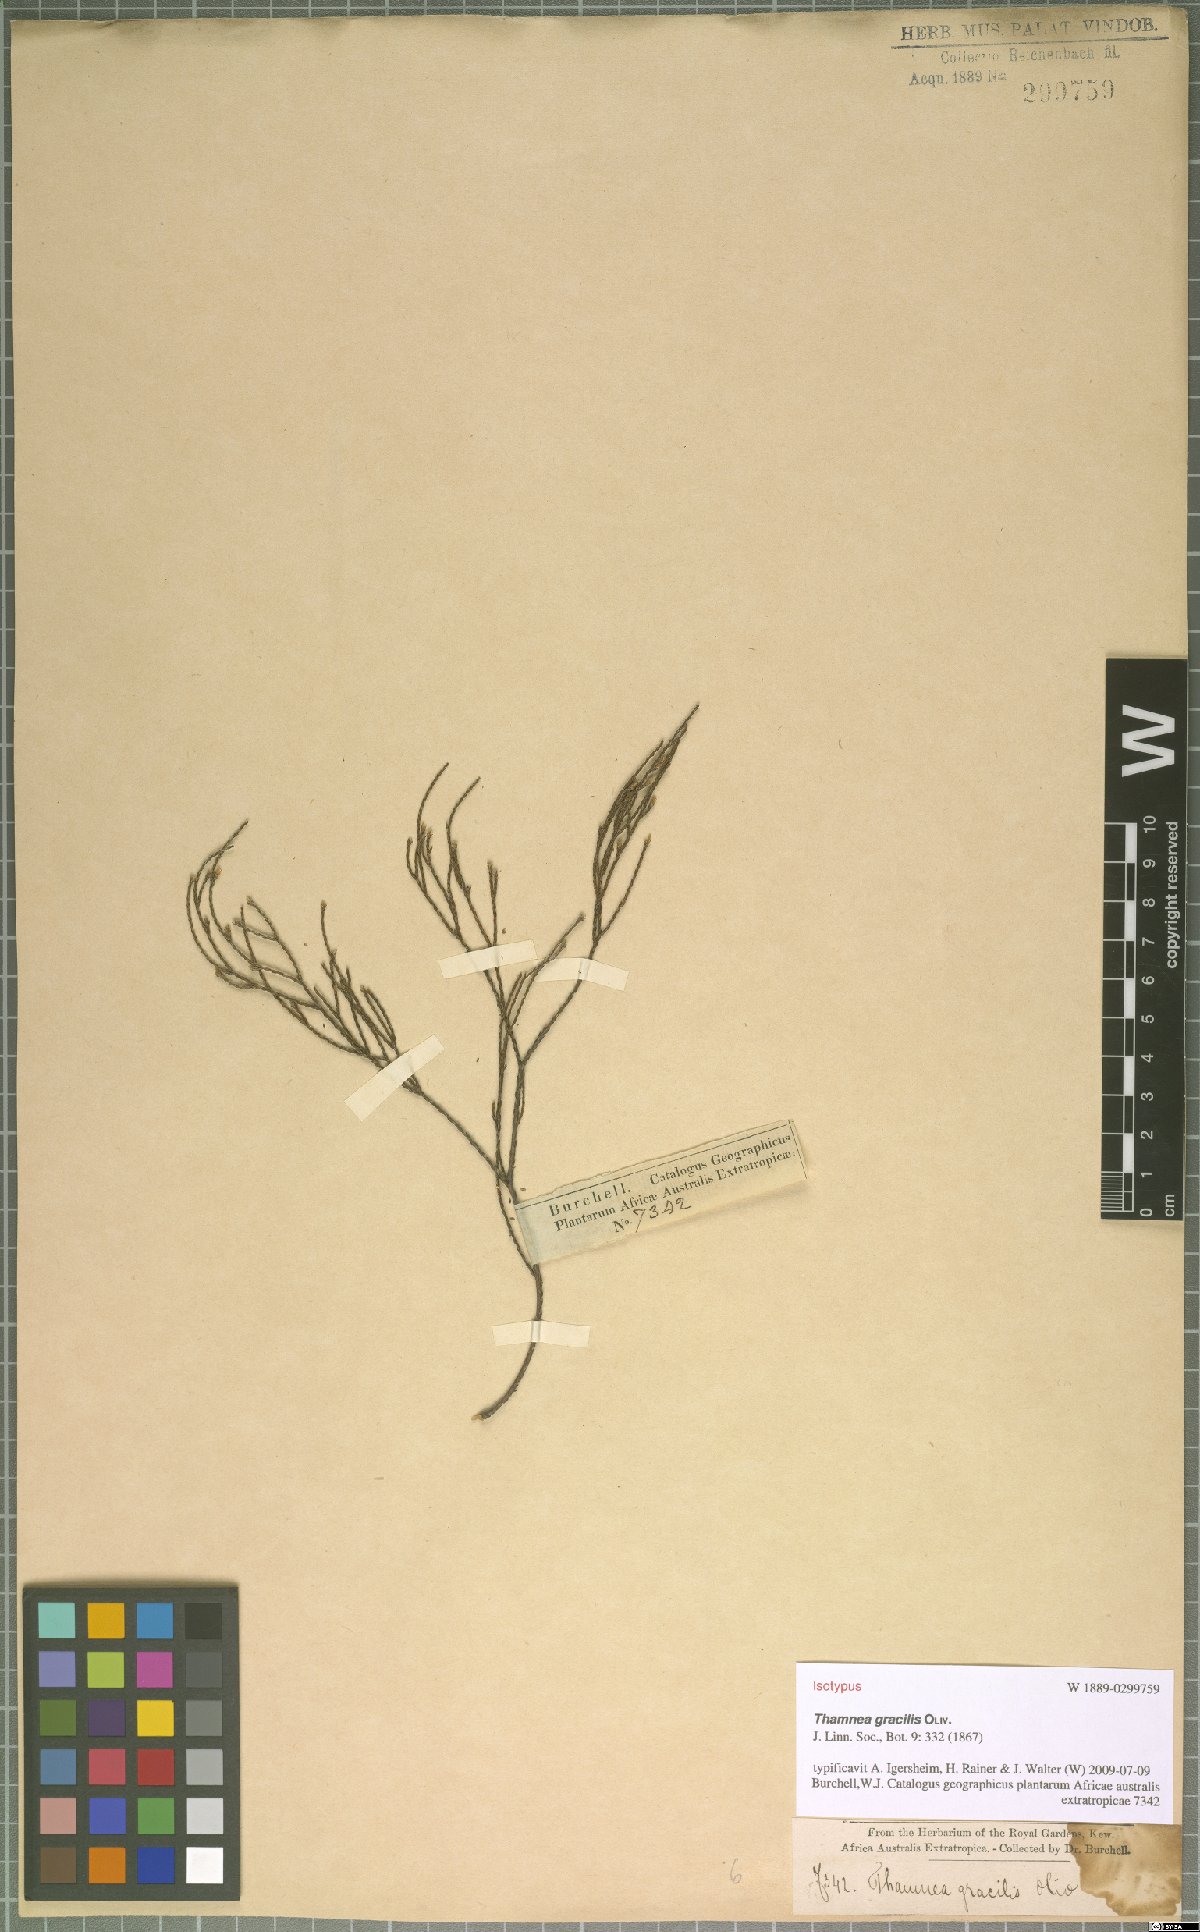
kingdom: Plantae
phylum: Tracheophyta
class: Magnoliopsida
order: Bruniales
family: Bruniaceae
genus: Thamnea
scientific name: Thamnea gracilis
